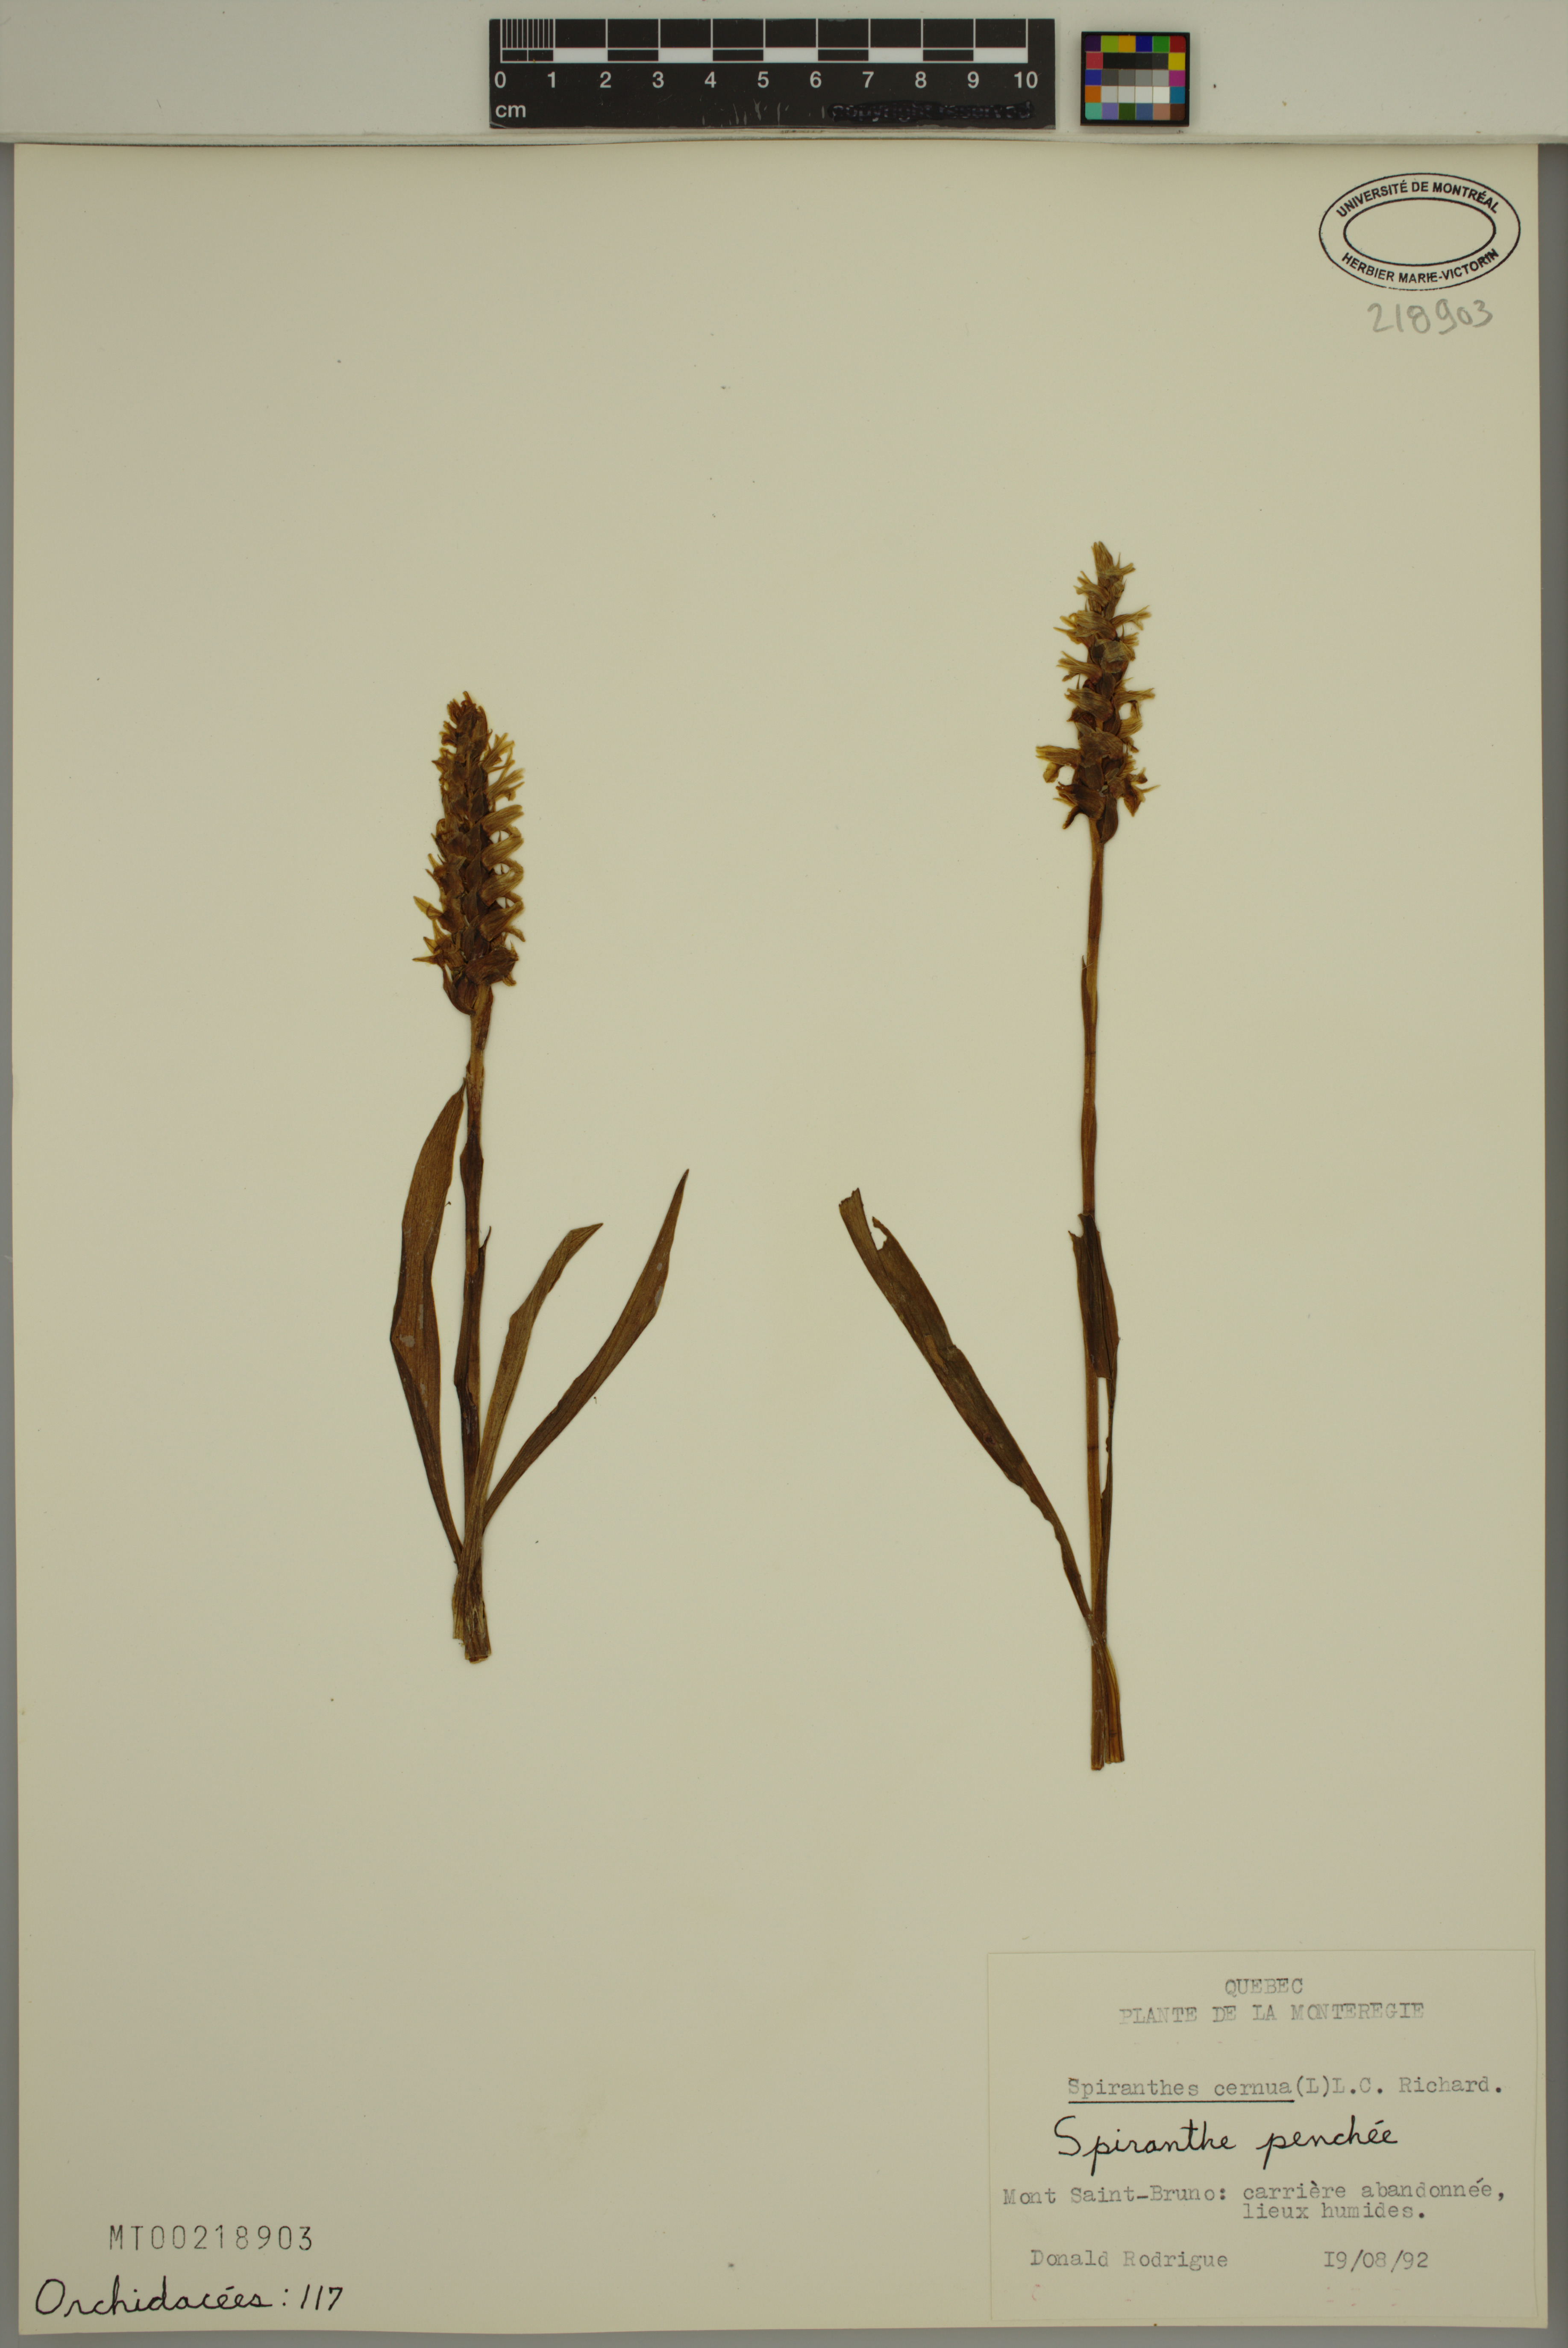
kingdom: Plantae
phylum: Tracheophyta
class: Liliopsida
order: Asparagales
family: Orchidaceae
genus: Spiranthes
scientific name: Spiranthes cernua
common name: Dropping ladies'-tresses
